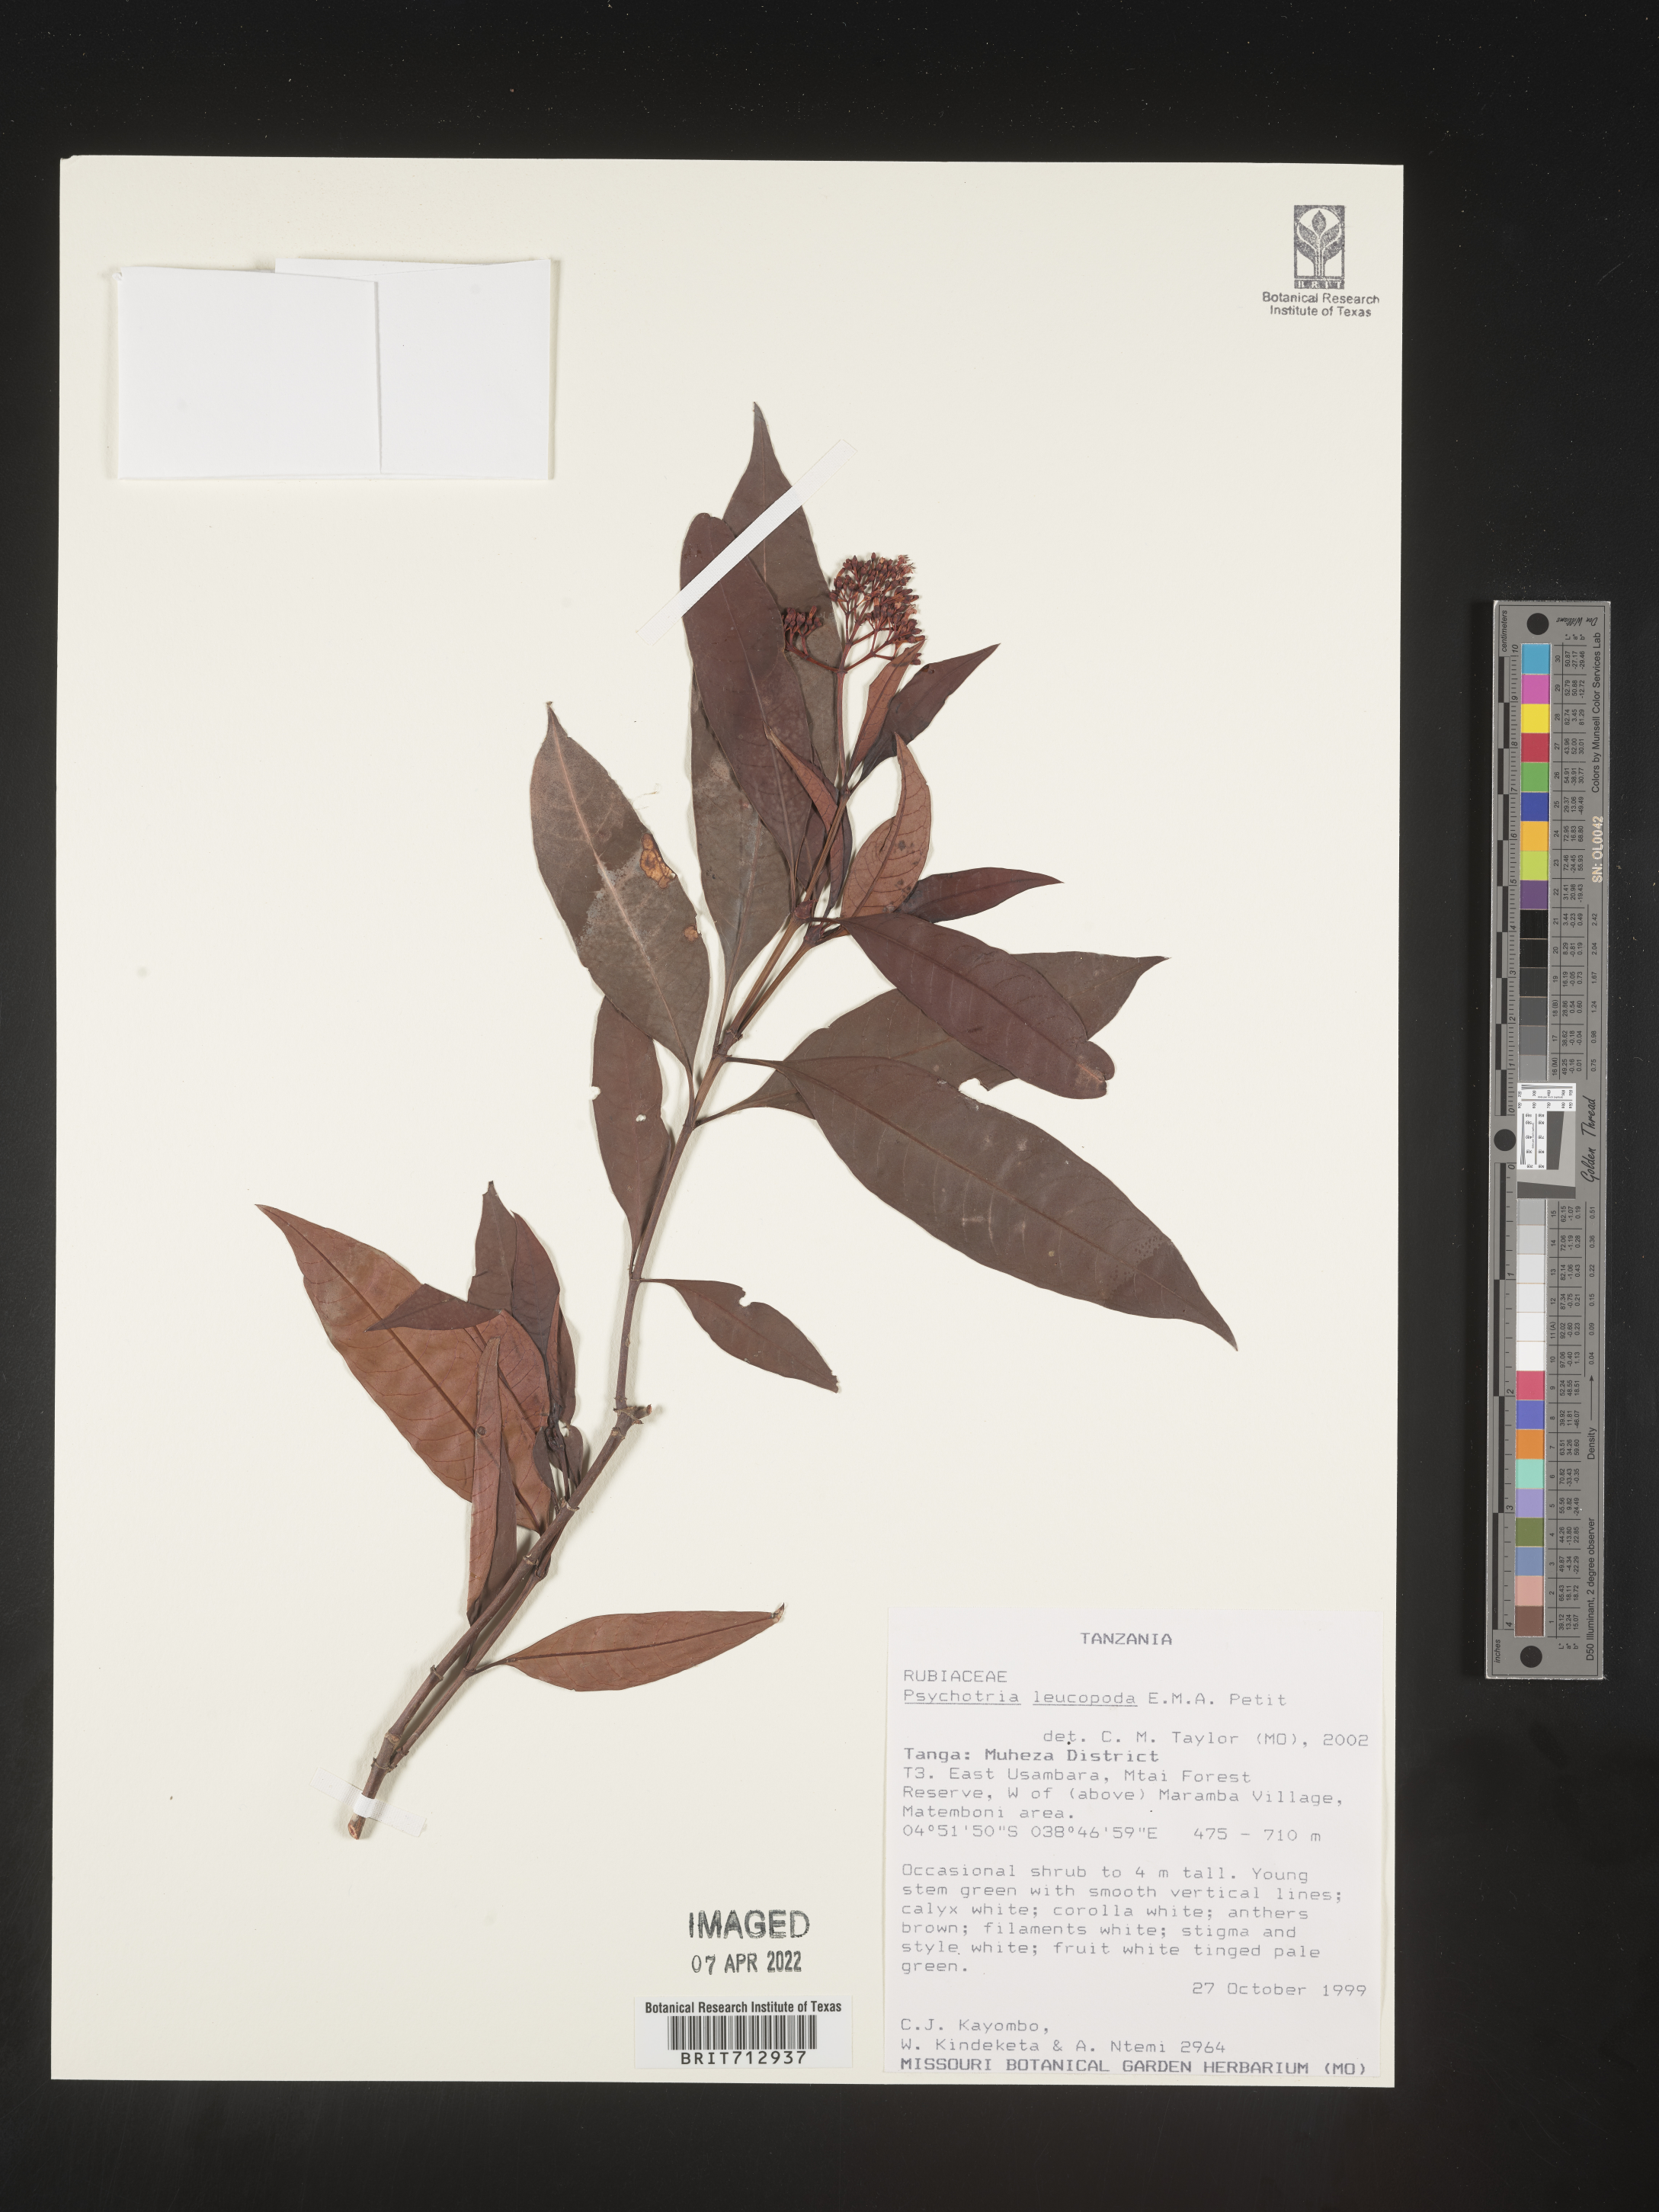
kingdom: Plantae
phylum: Tracheophyta
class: Magnoliopsida
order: Gentianales
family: Rubiaceae
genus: Psychotria
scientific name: Psychotria
